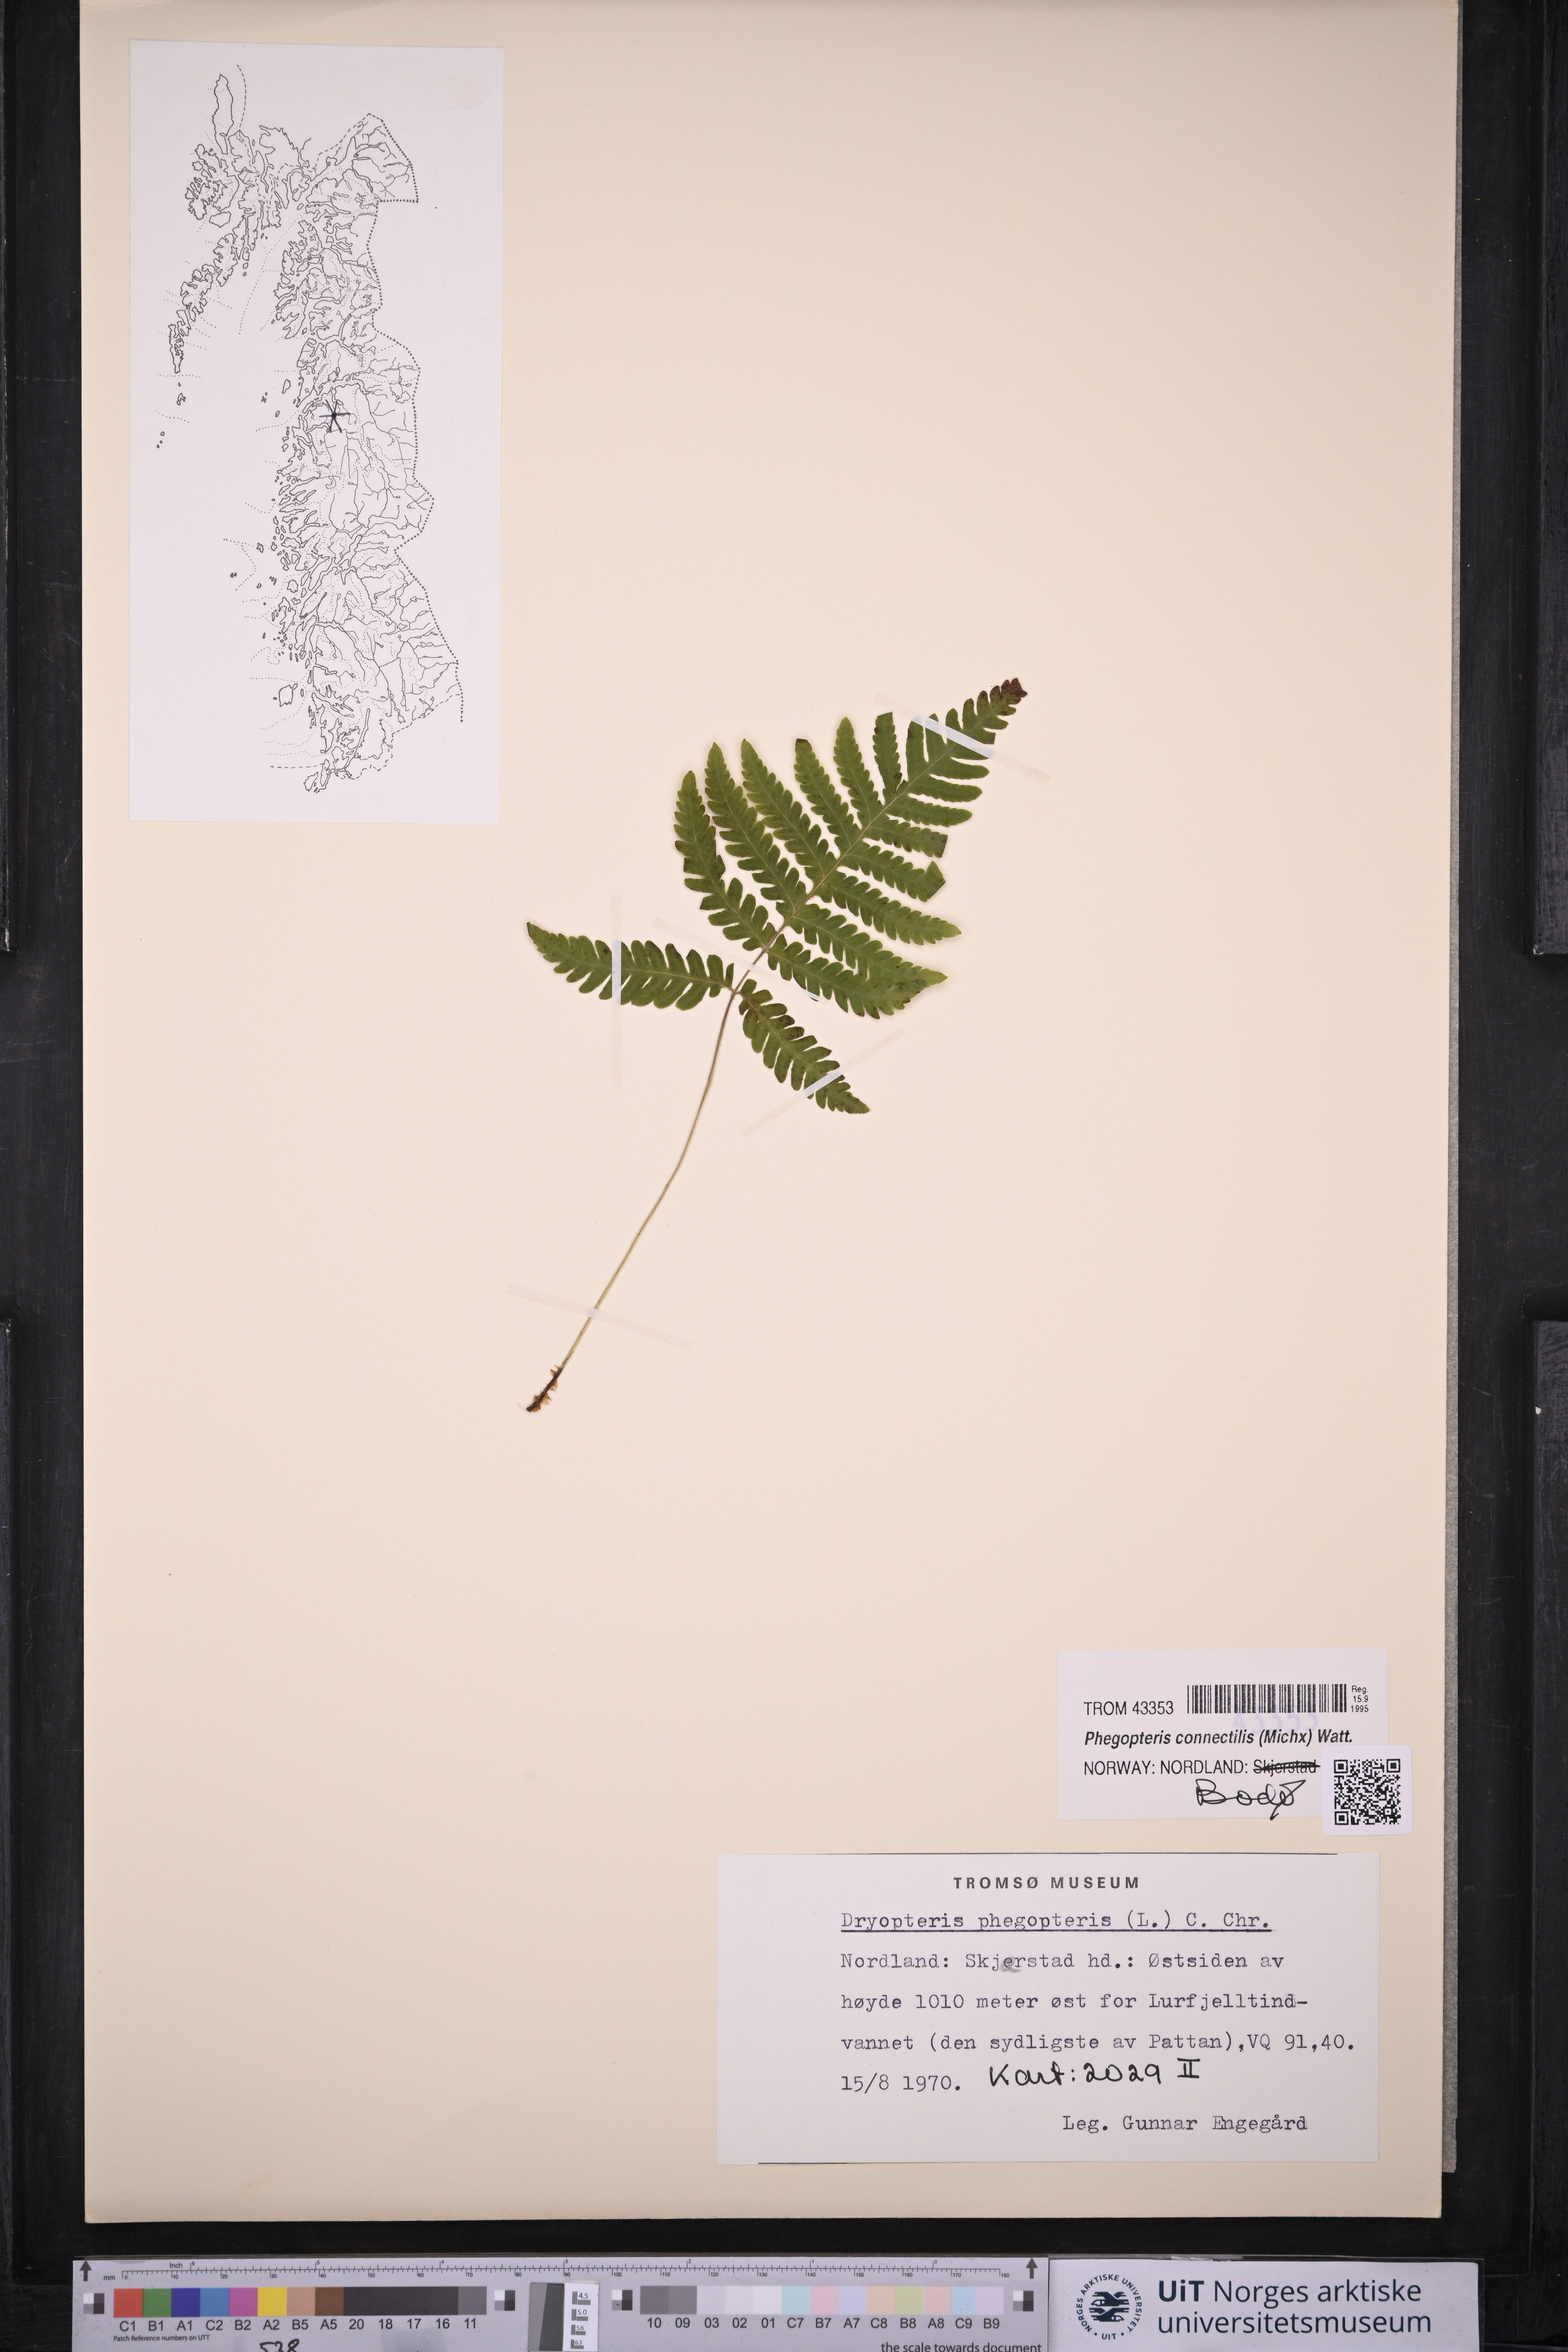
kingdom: Plantae
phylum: Tracheophyta
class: Polypodiopsida
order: Polypodiales
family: Thelypteridaceae
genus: Phegopteris
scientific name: Phegopteris connectilis
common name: Beech fern
